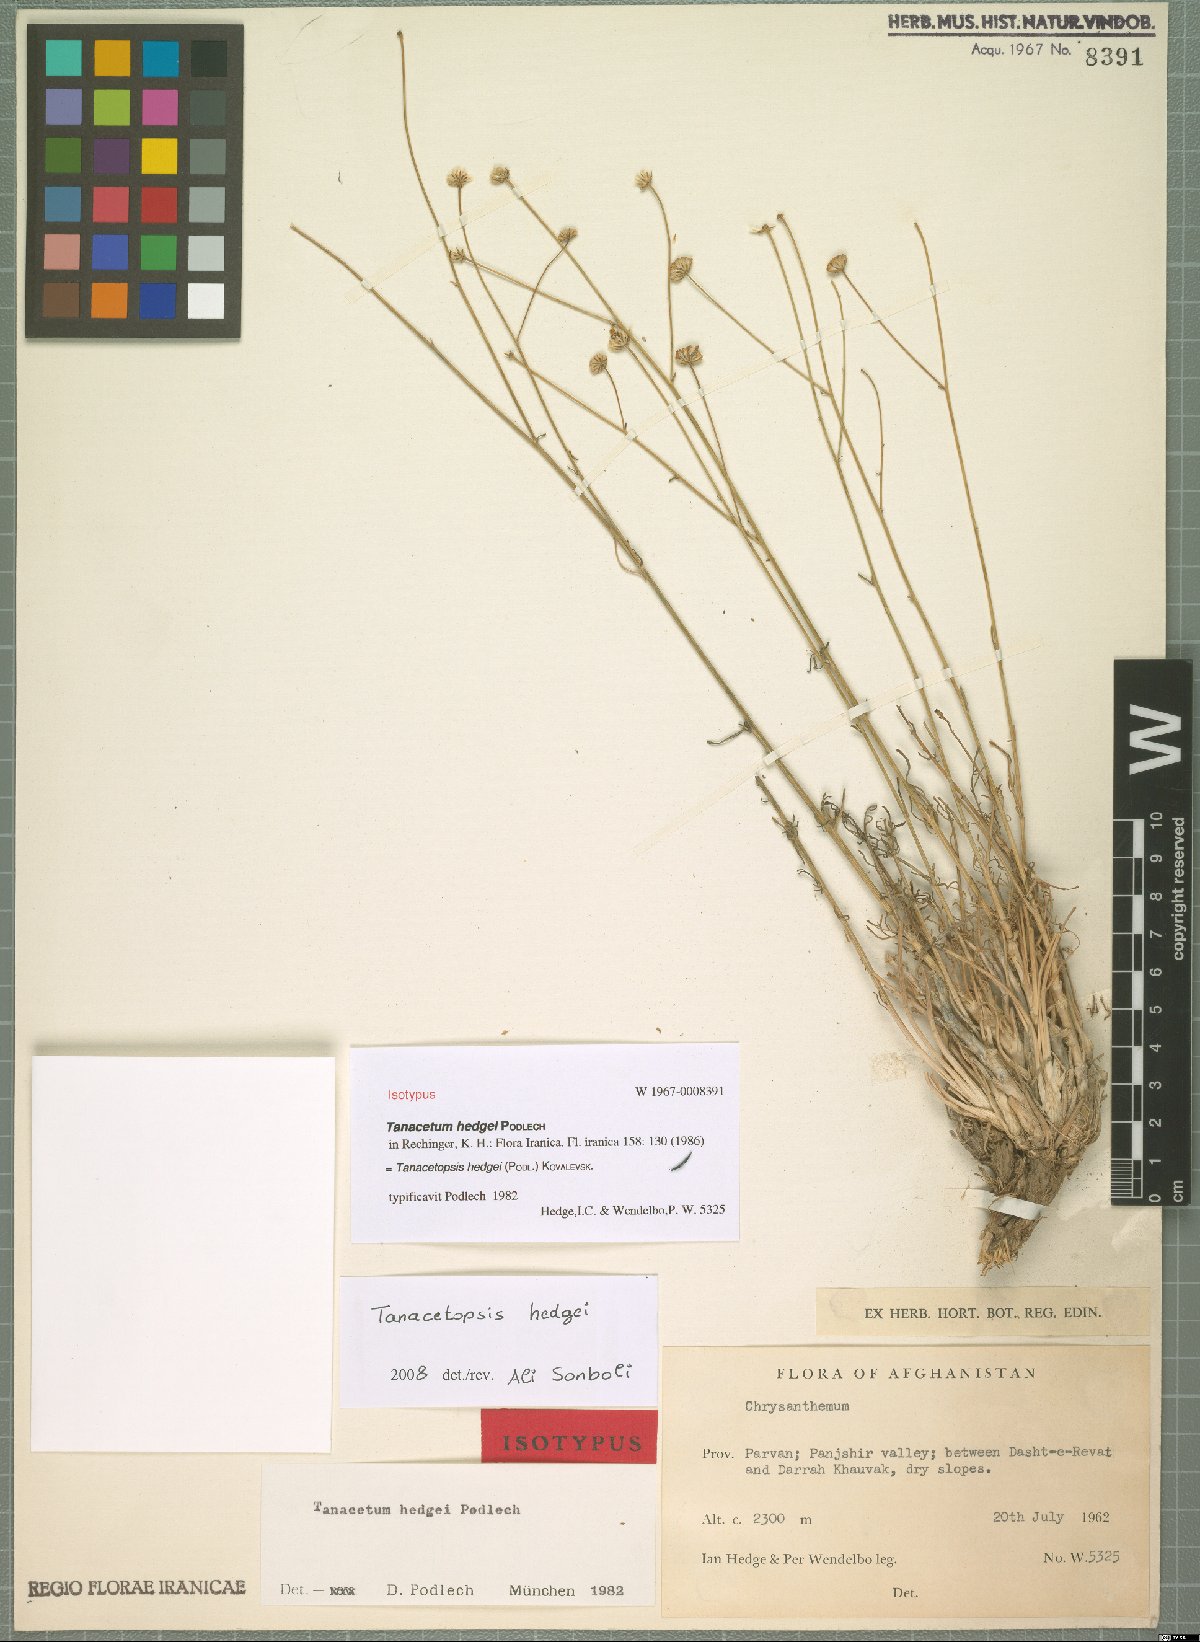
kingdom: Plantae
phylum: Tracheophyta
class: Magnoliopsida
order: Asterales
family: Asteraceae
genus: Tanacetopsis
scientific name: Tanacetopsis hedgei
